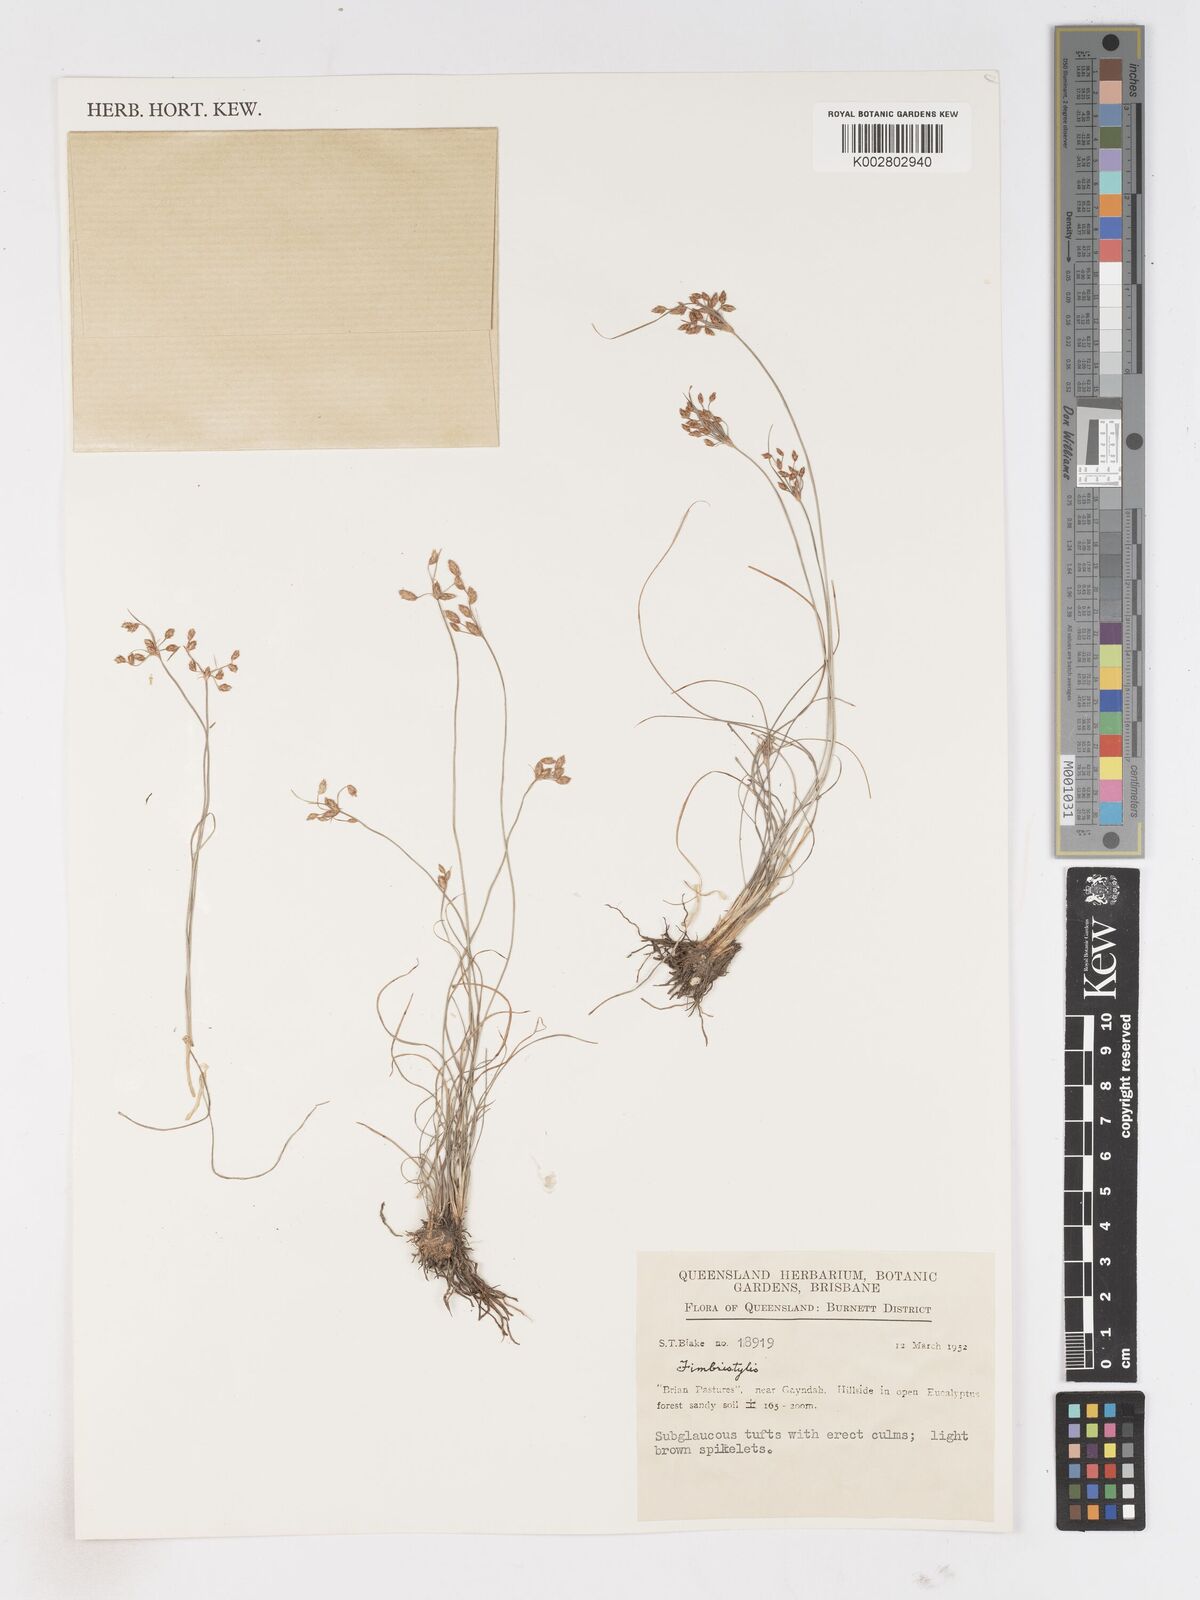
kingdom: Plantae
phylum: Tracheophyta
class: Liliopsida
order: Poales
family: Cyperaceae
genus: Fimbristylis
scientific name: Fimbristylis
